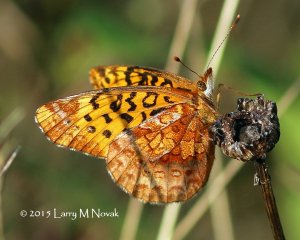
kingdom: Animalia
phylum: Arthropoda
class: Insecta
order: Lepidoptera
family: Nymphalidae
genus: Clossiana
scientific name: Clossiana toddi
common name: Meadow Fritillary
